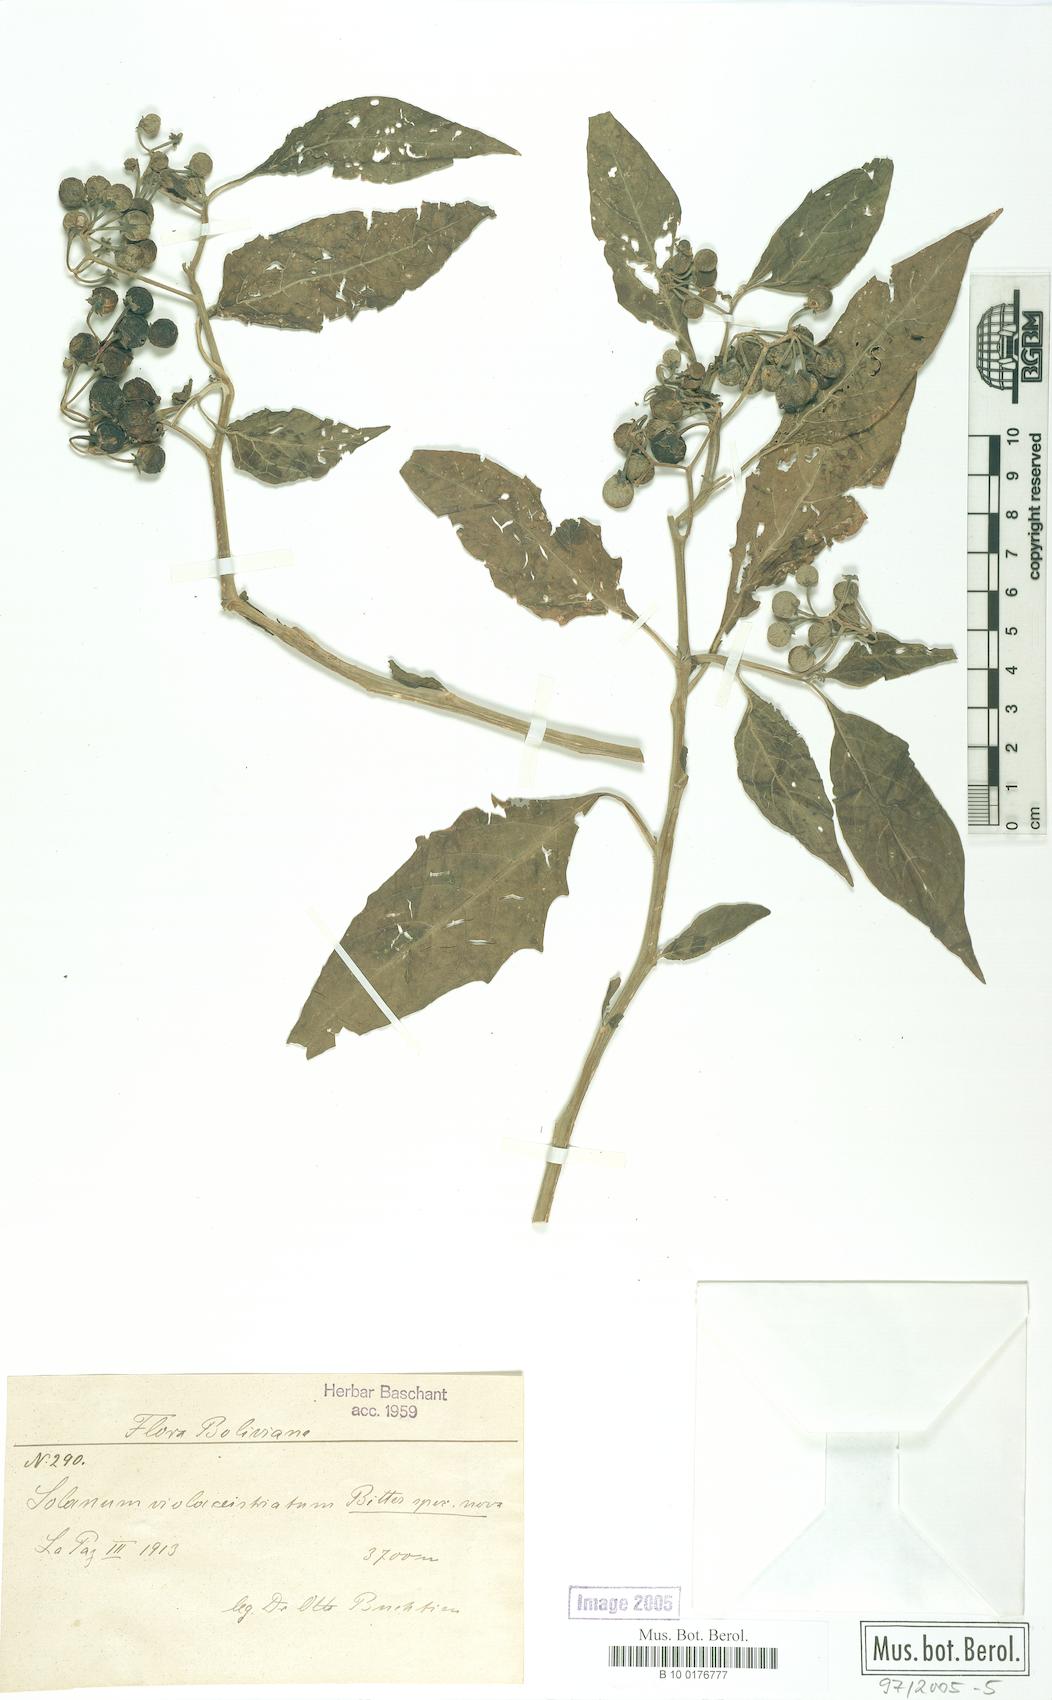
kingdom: Plantae
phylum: Tracheophyta
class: Magnoliopsida
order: Solanales
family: Solanaceae
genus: Solanum
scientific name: Solanum polytrichostylum
